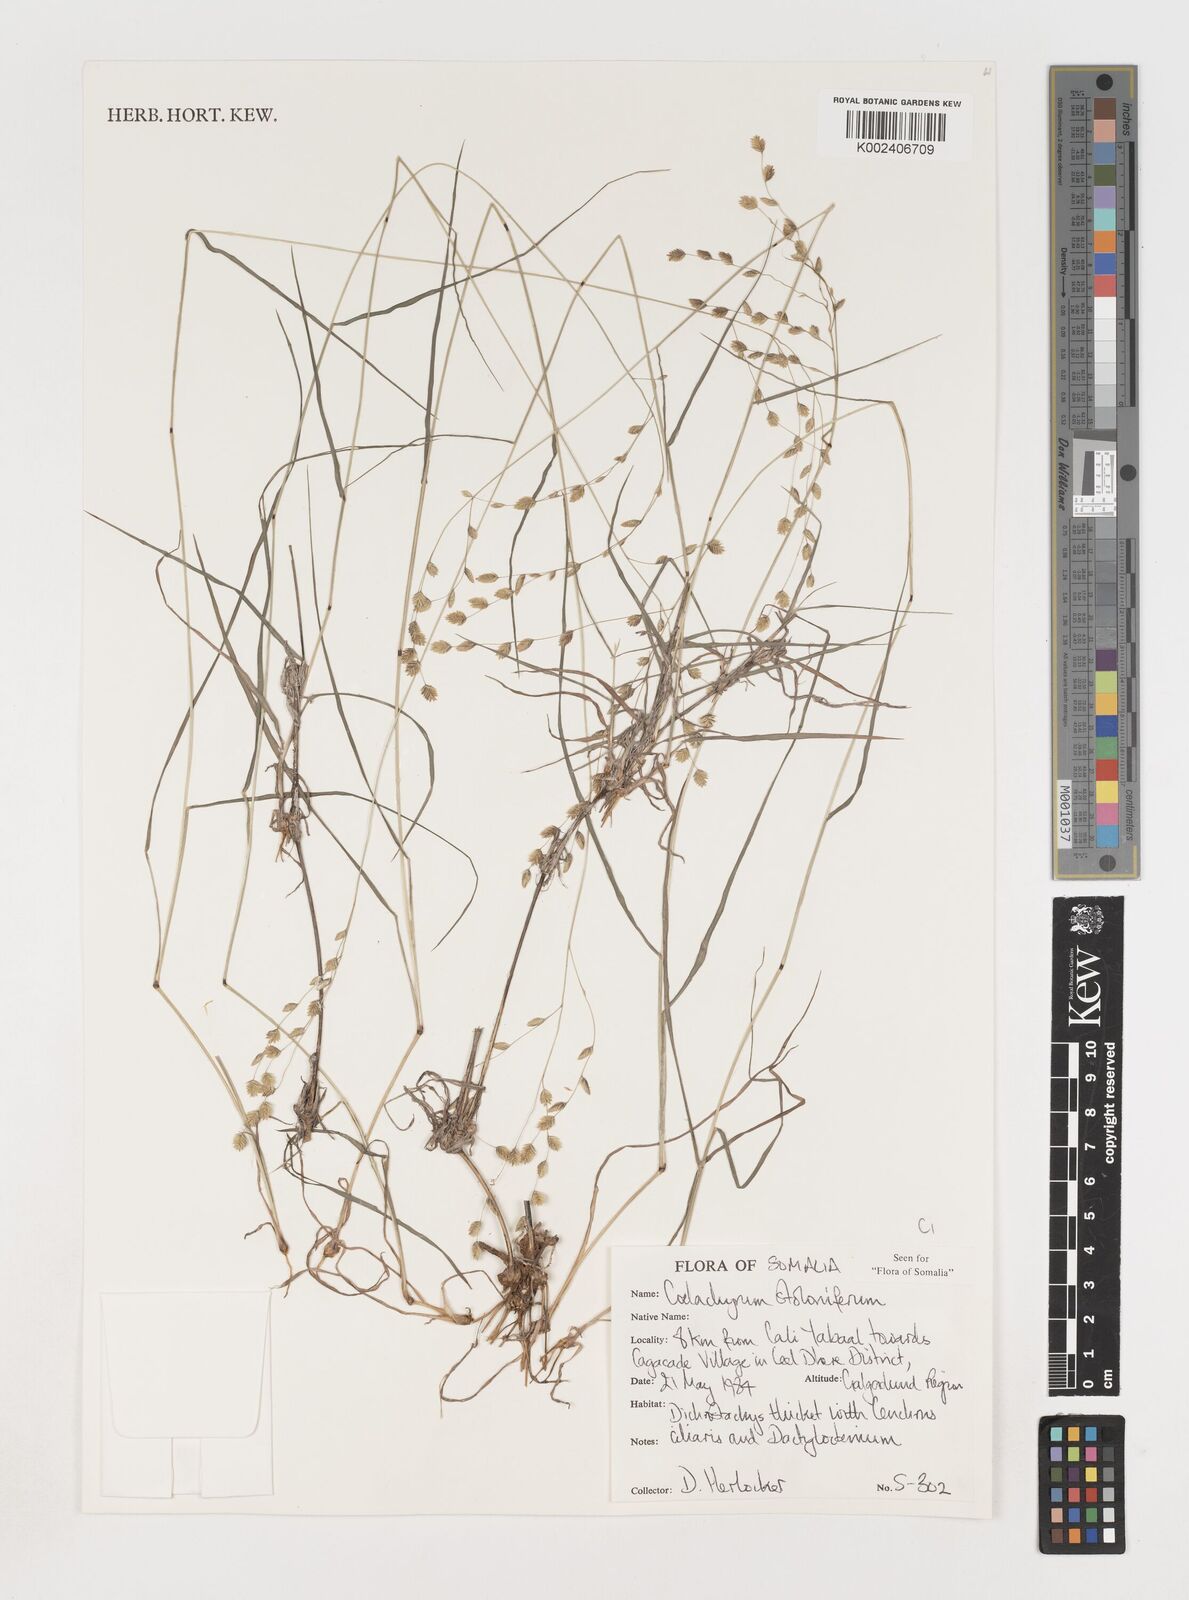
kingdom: Plantae
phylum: Tracheophyta
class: Liliopsida
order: Poales
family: Poaceae
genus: Coelachyrum
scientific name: Coelachyrum piercei
